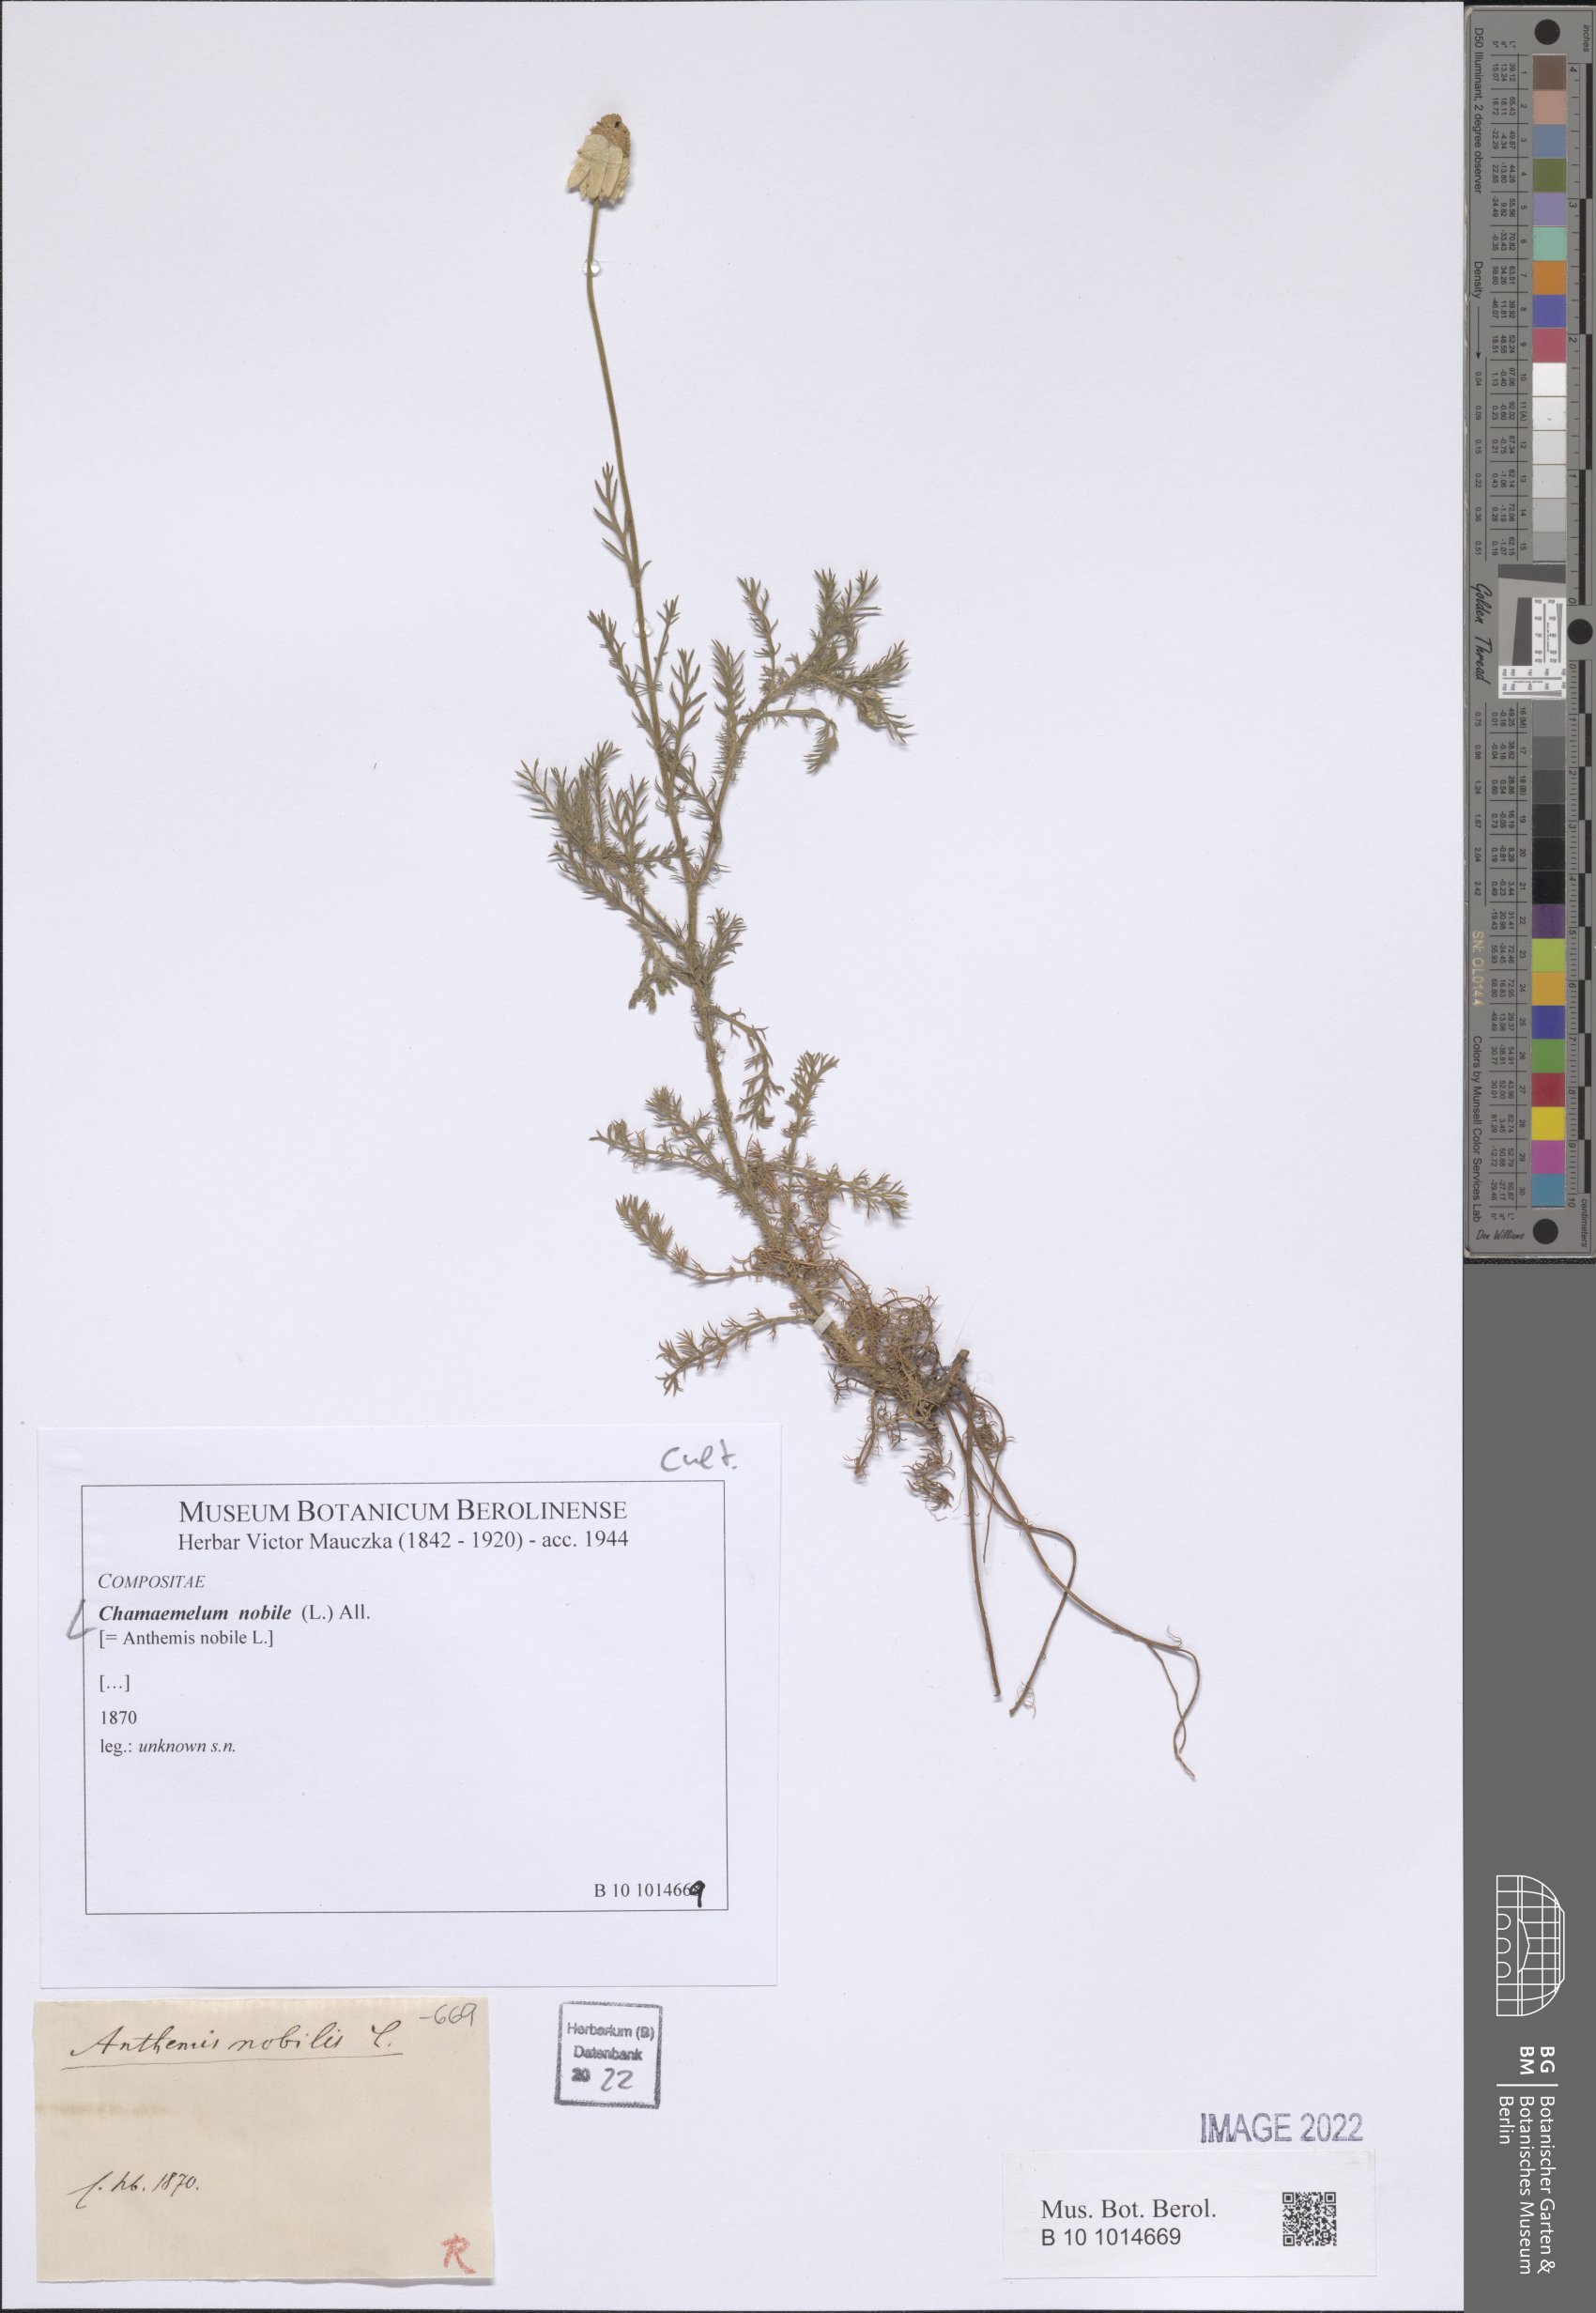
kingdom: Plantae
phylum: Tracheophyta
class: Magnoliopsida
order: Asterales
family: Asteraceae
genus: Chamaemelum
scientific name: Chamaemelum nobile
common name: Roman chamomile
